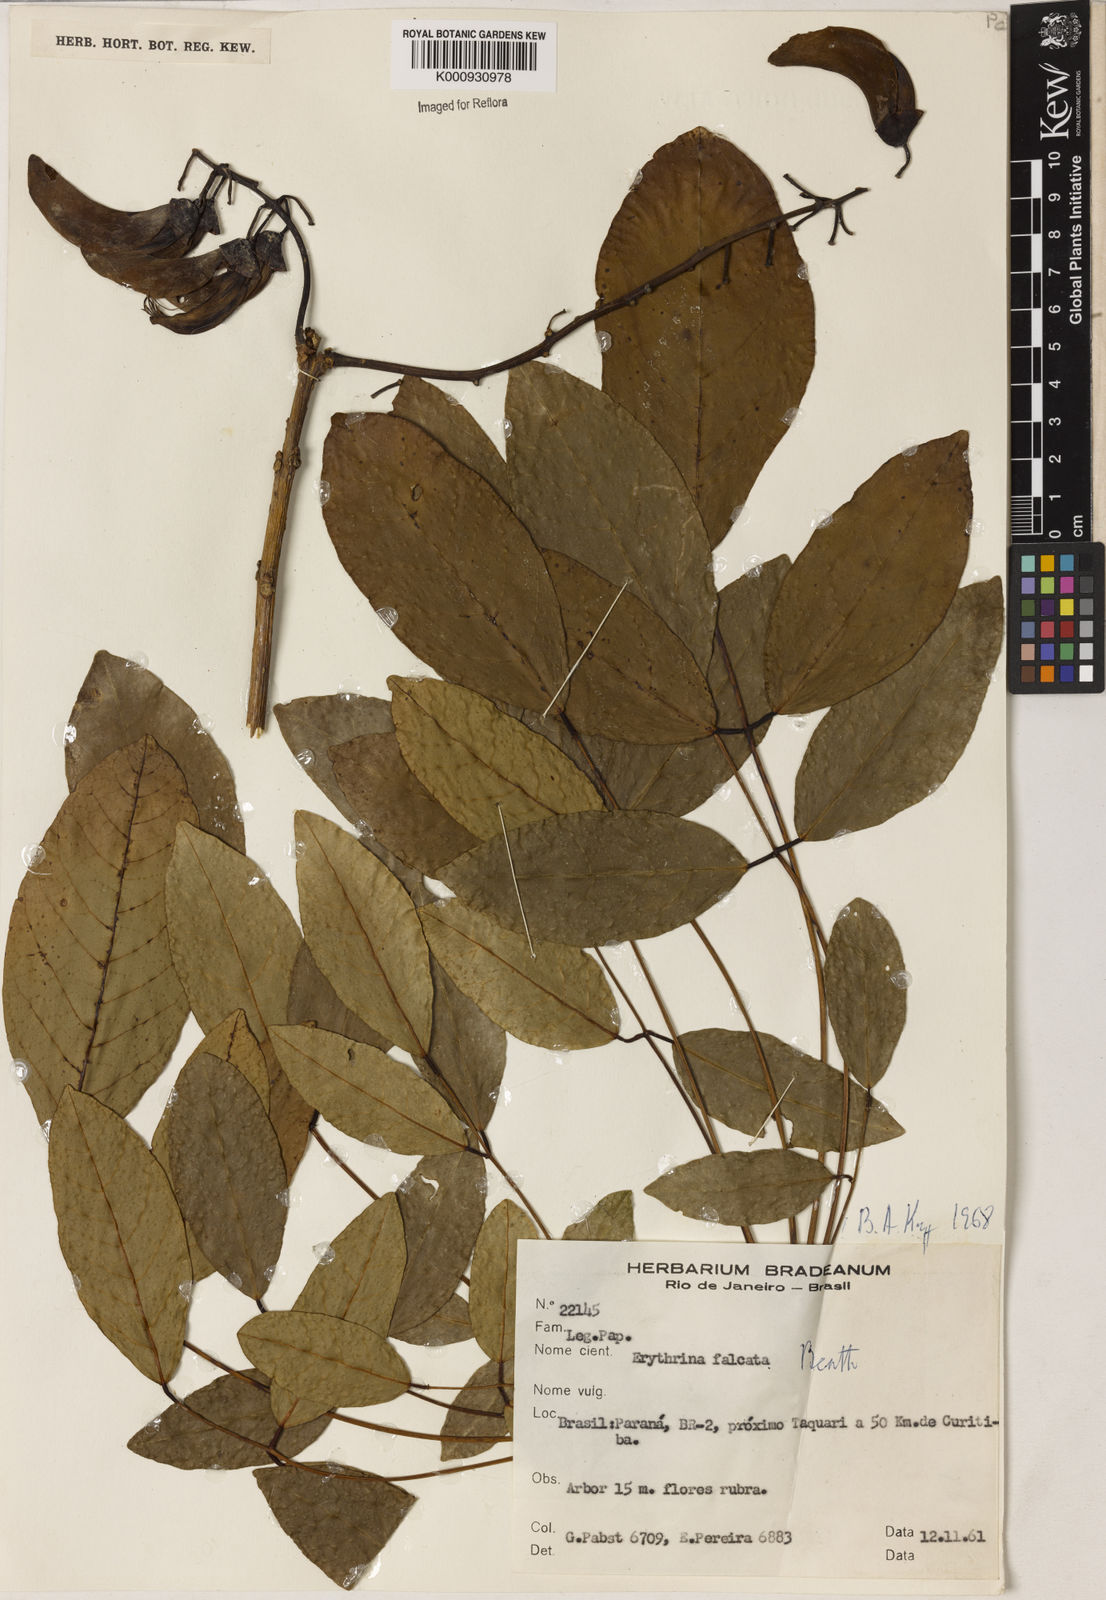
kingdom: Plantae
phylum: Tracheophyta
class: Magnoliopsida
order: Fabales
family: Fabaceae
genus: Erythrina
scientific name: Erythrina falcata
